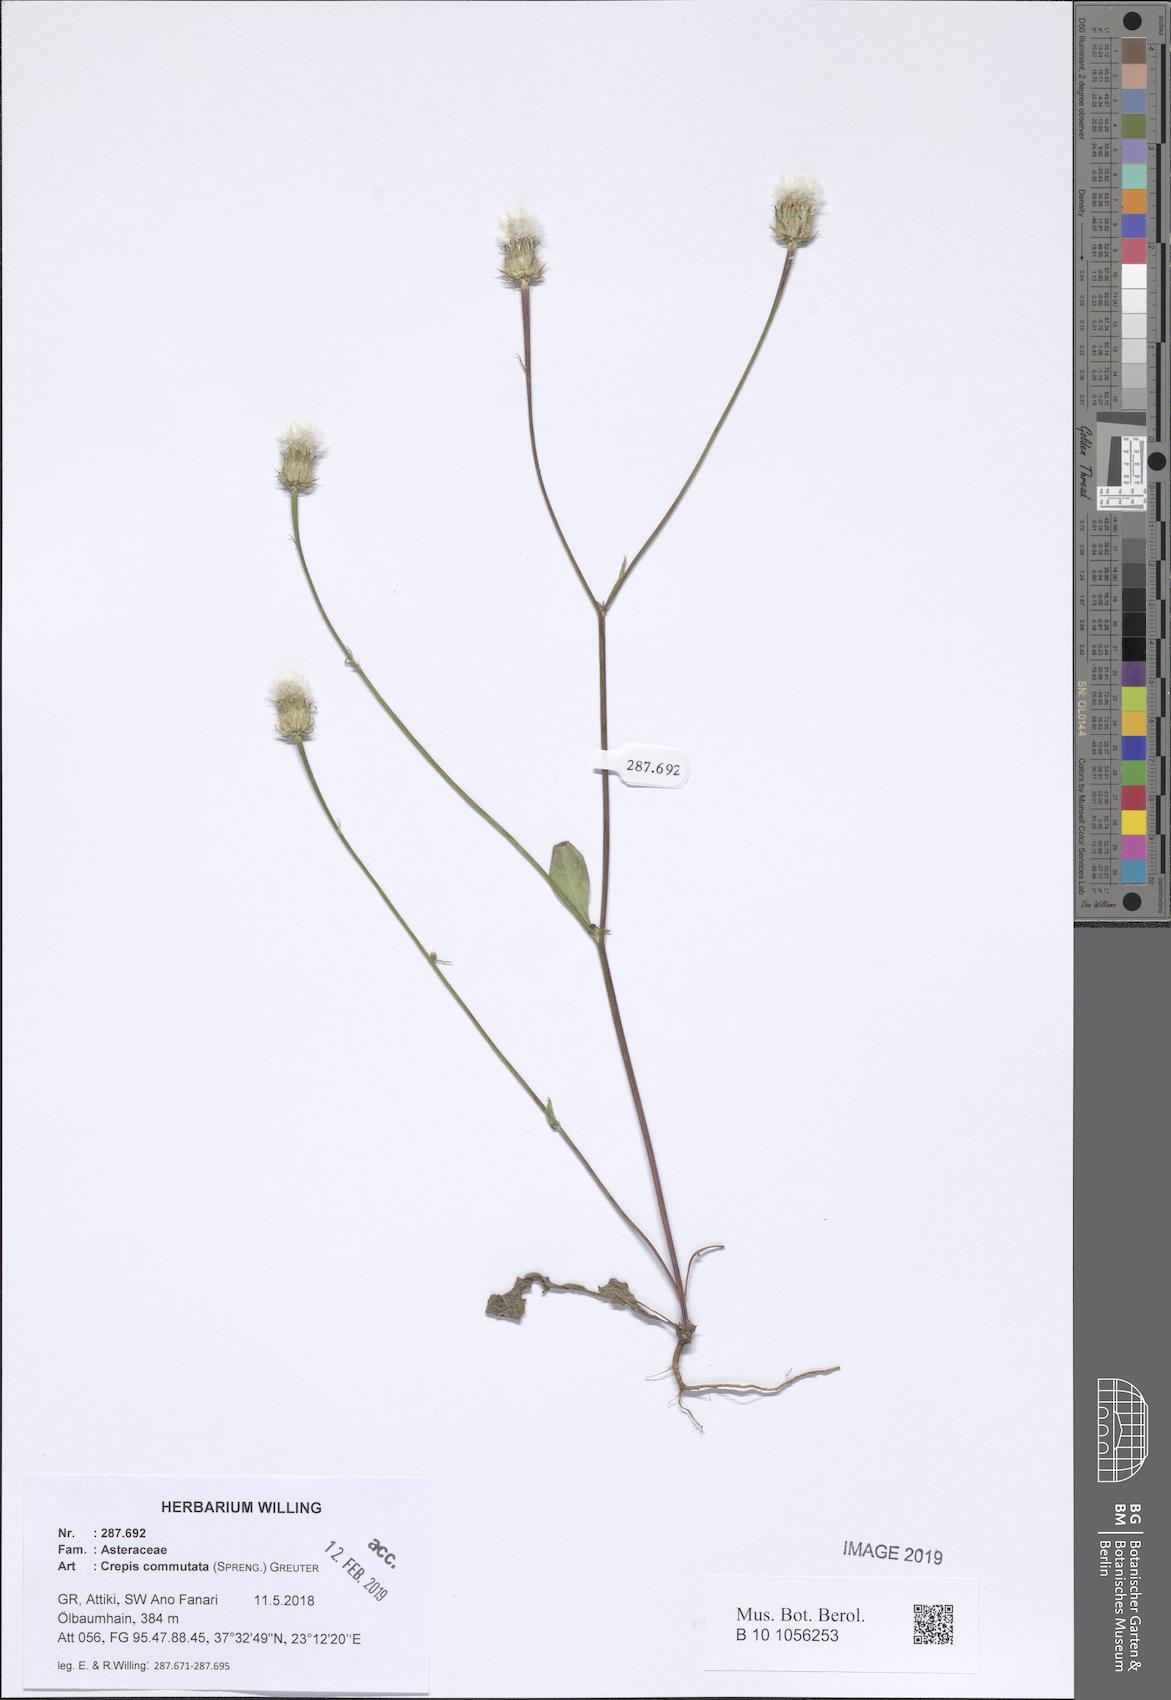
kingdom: Plantae
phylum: Tracheophyta
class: Magnoliopsida
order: Asterales
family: Asteraceae
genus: Crepis
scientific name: Crepis commutata
